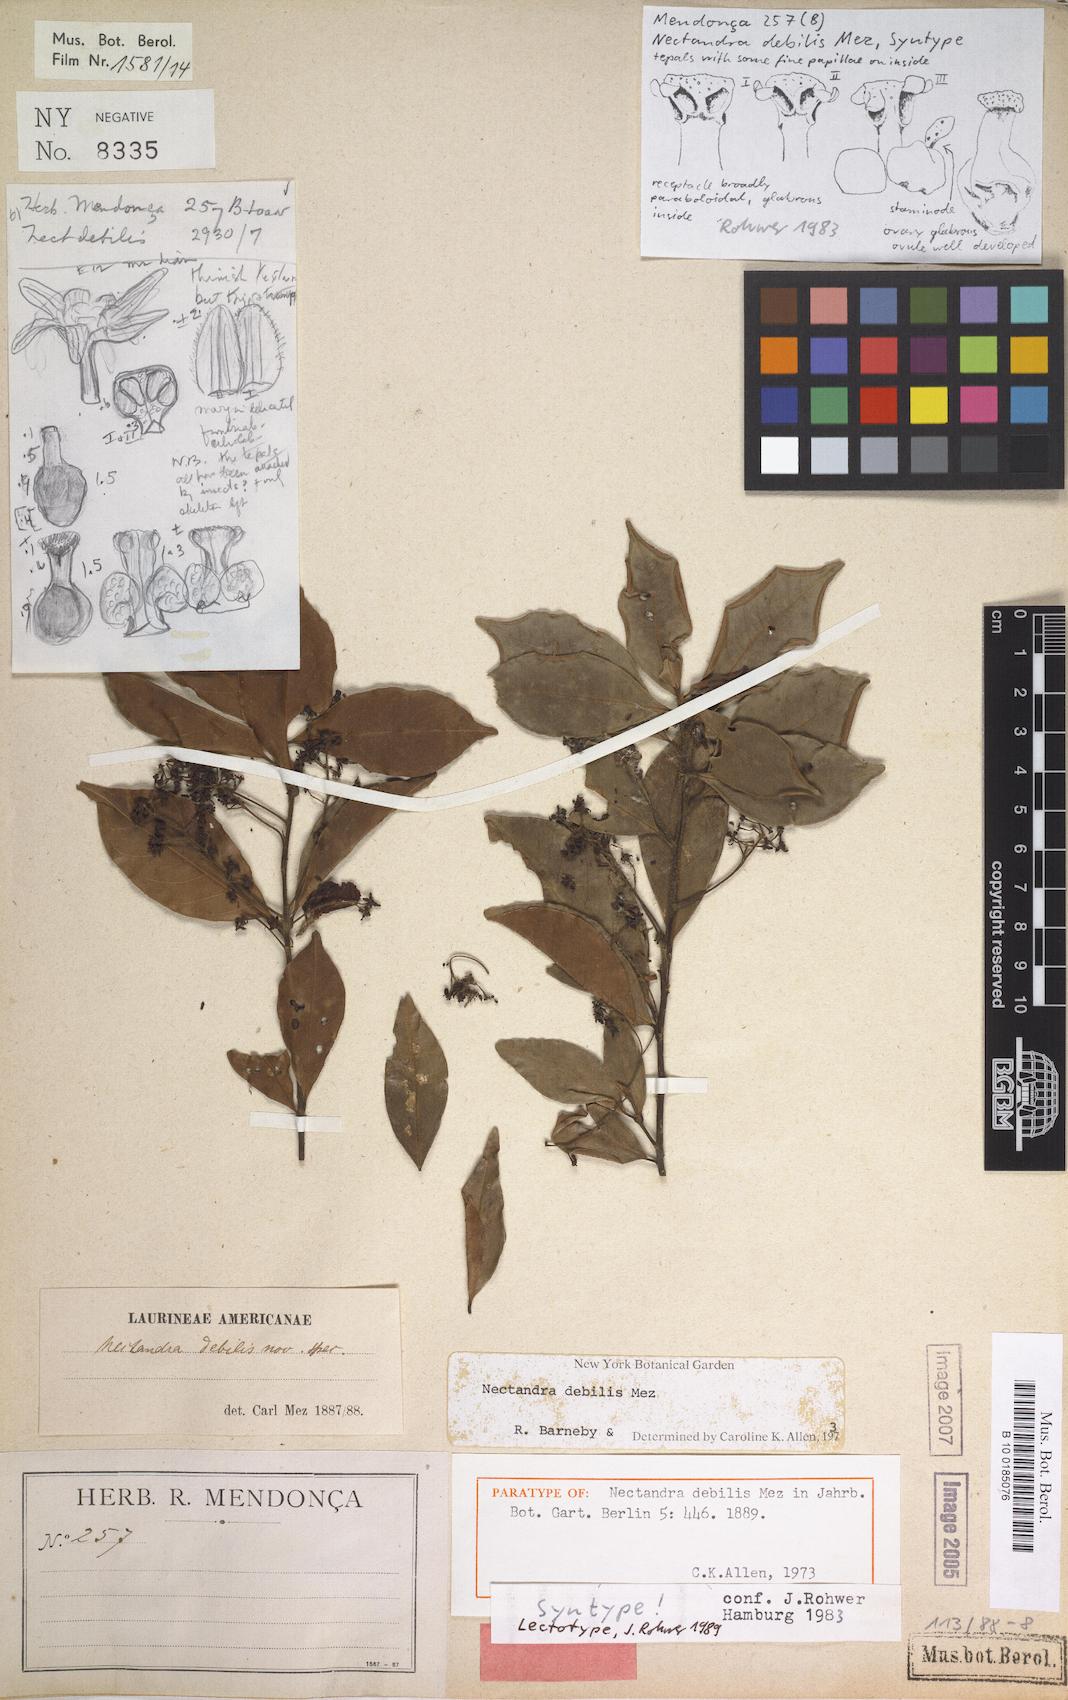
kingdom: Plantae
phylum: Tracheophyta
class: Magnoliopsida
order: Laurales
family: Lauraceae
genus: Nectandra
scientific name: Nectandra debilis
